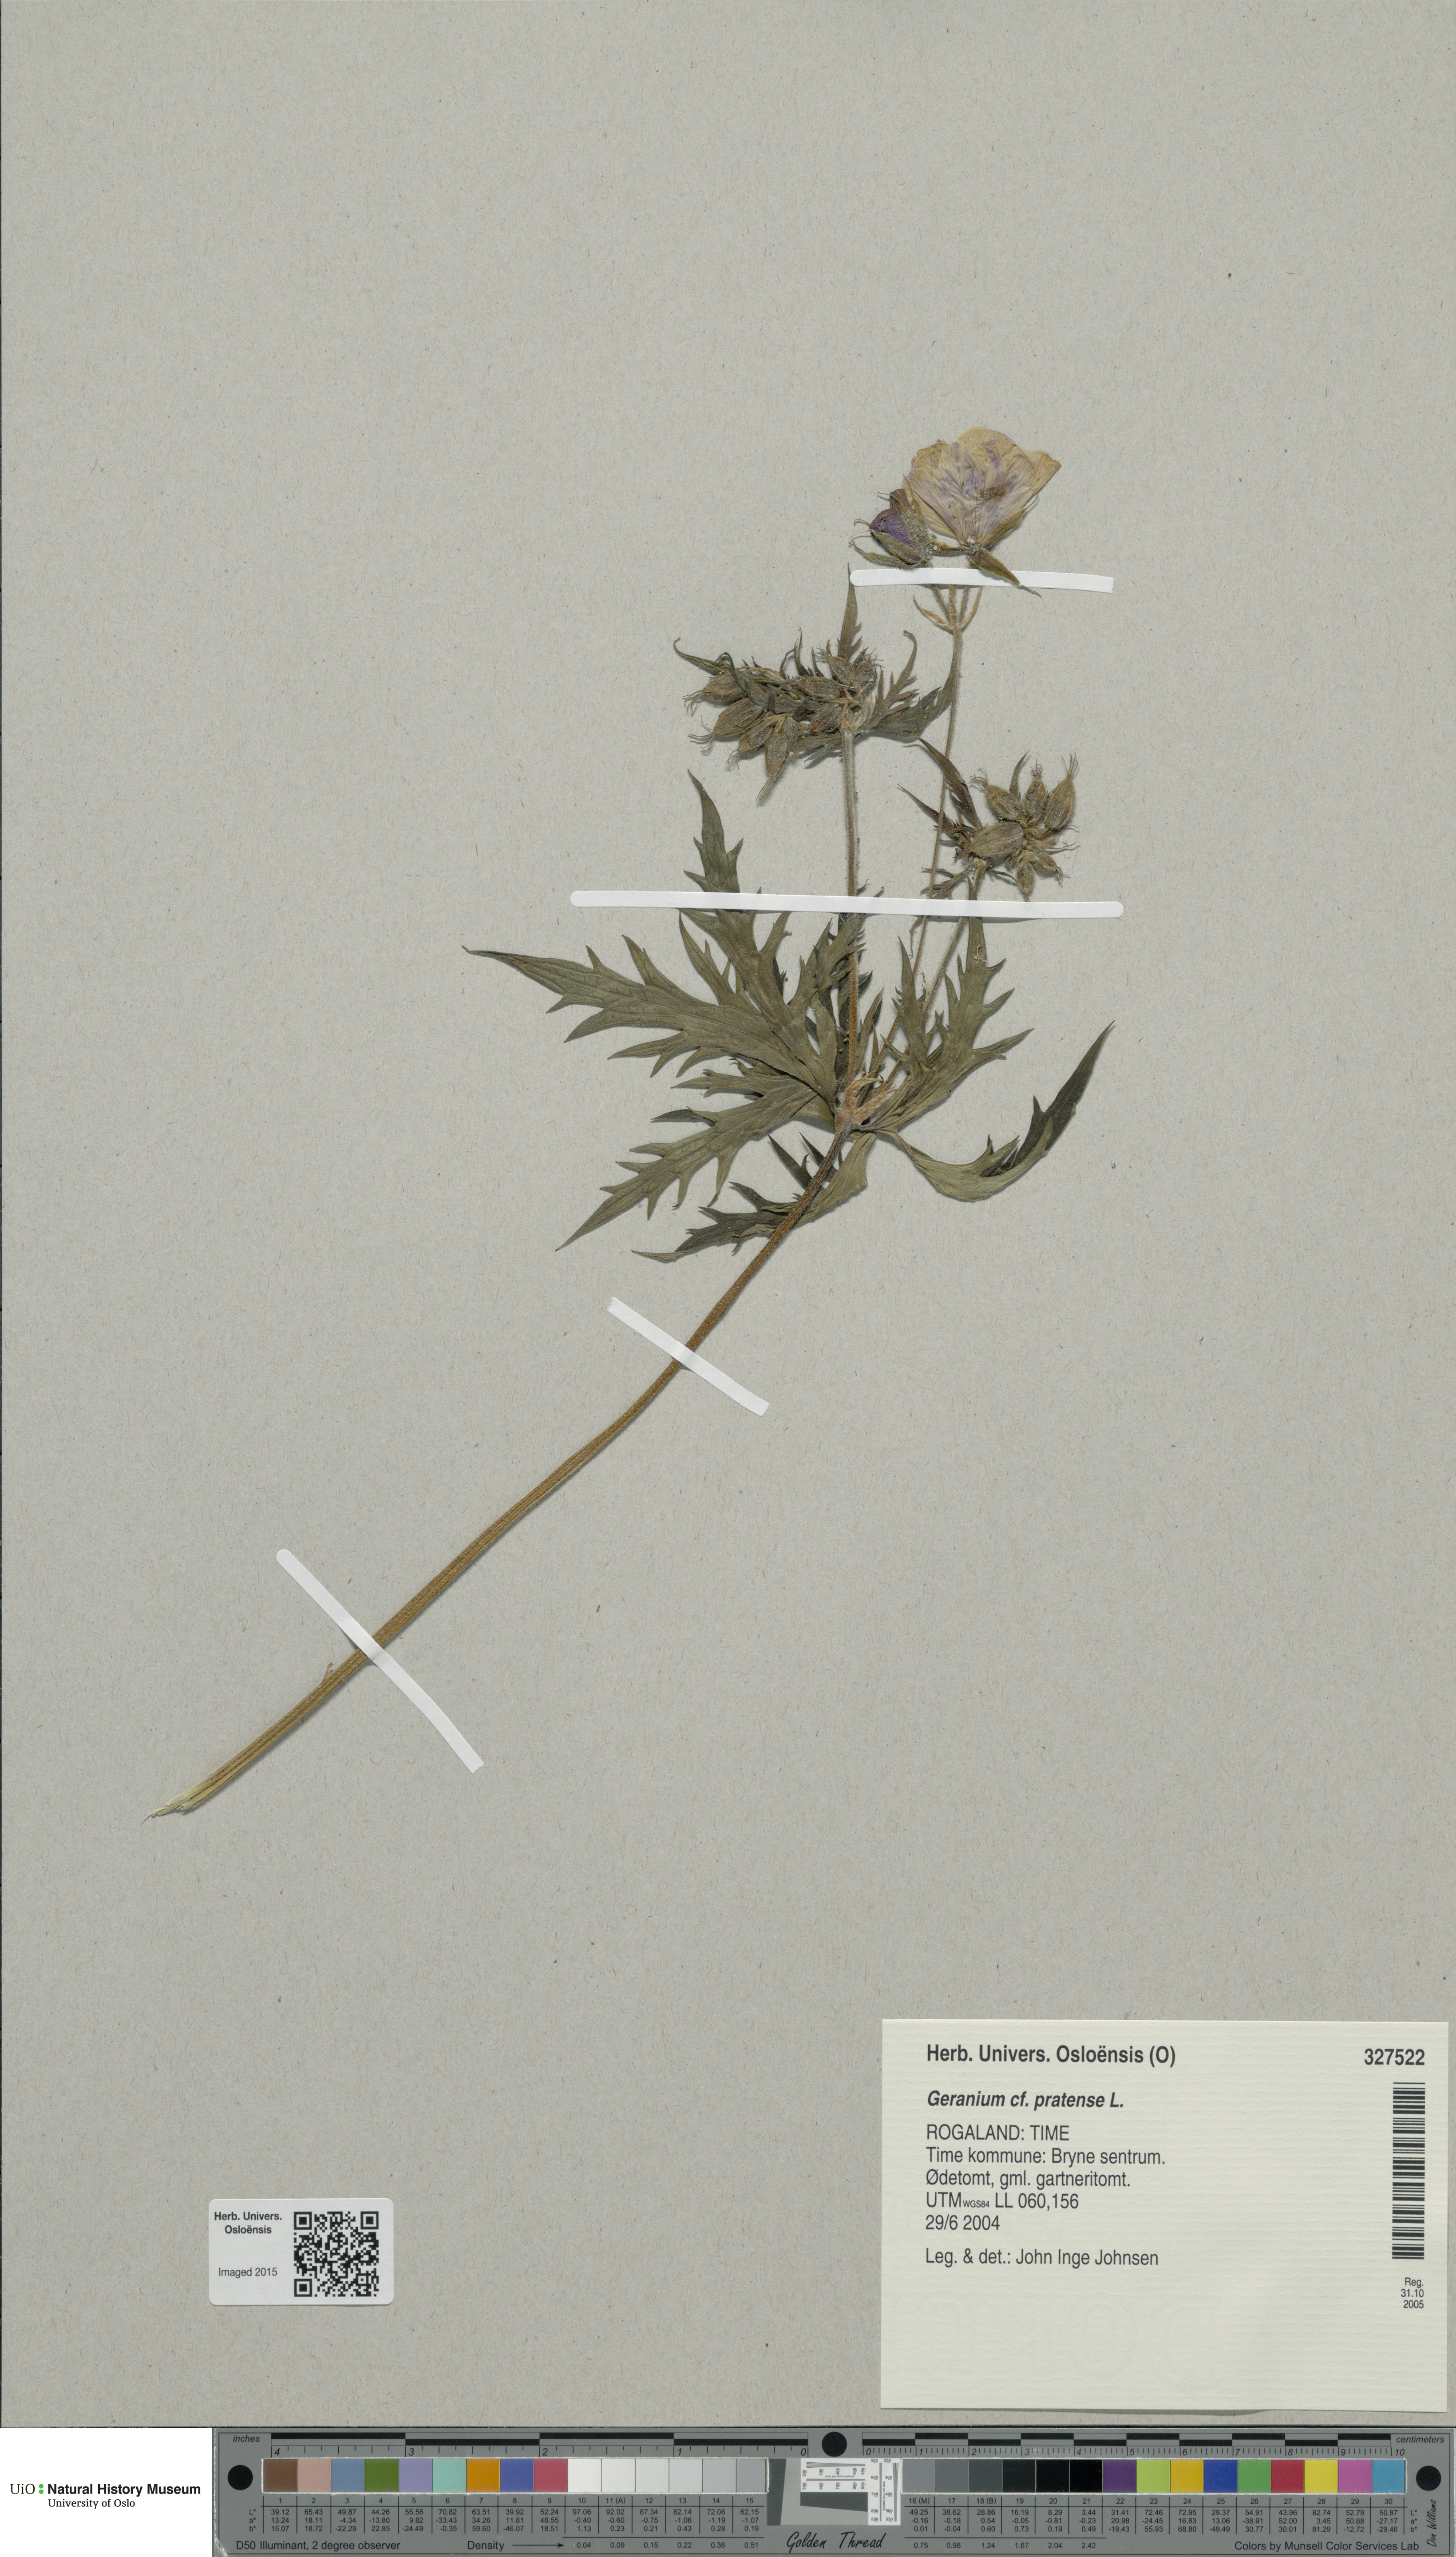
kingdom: Plantae
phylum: Tracheophyta
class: Magnoliopsida
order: Geraniales
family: Geraniaceae
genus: Geranium
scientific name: Geranium pratense
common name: Meadow crane's-bill
